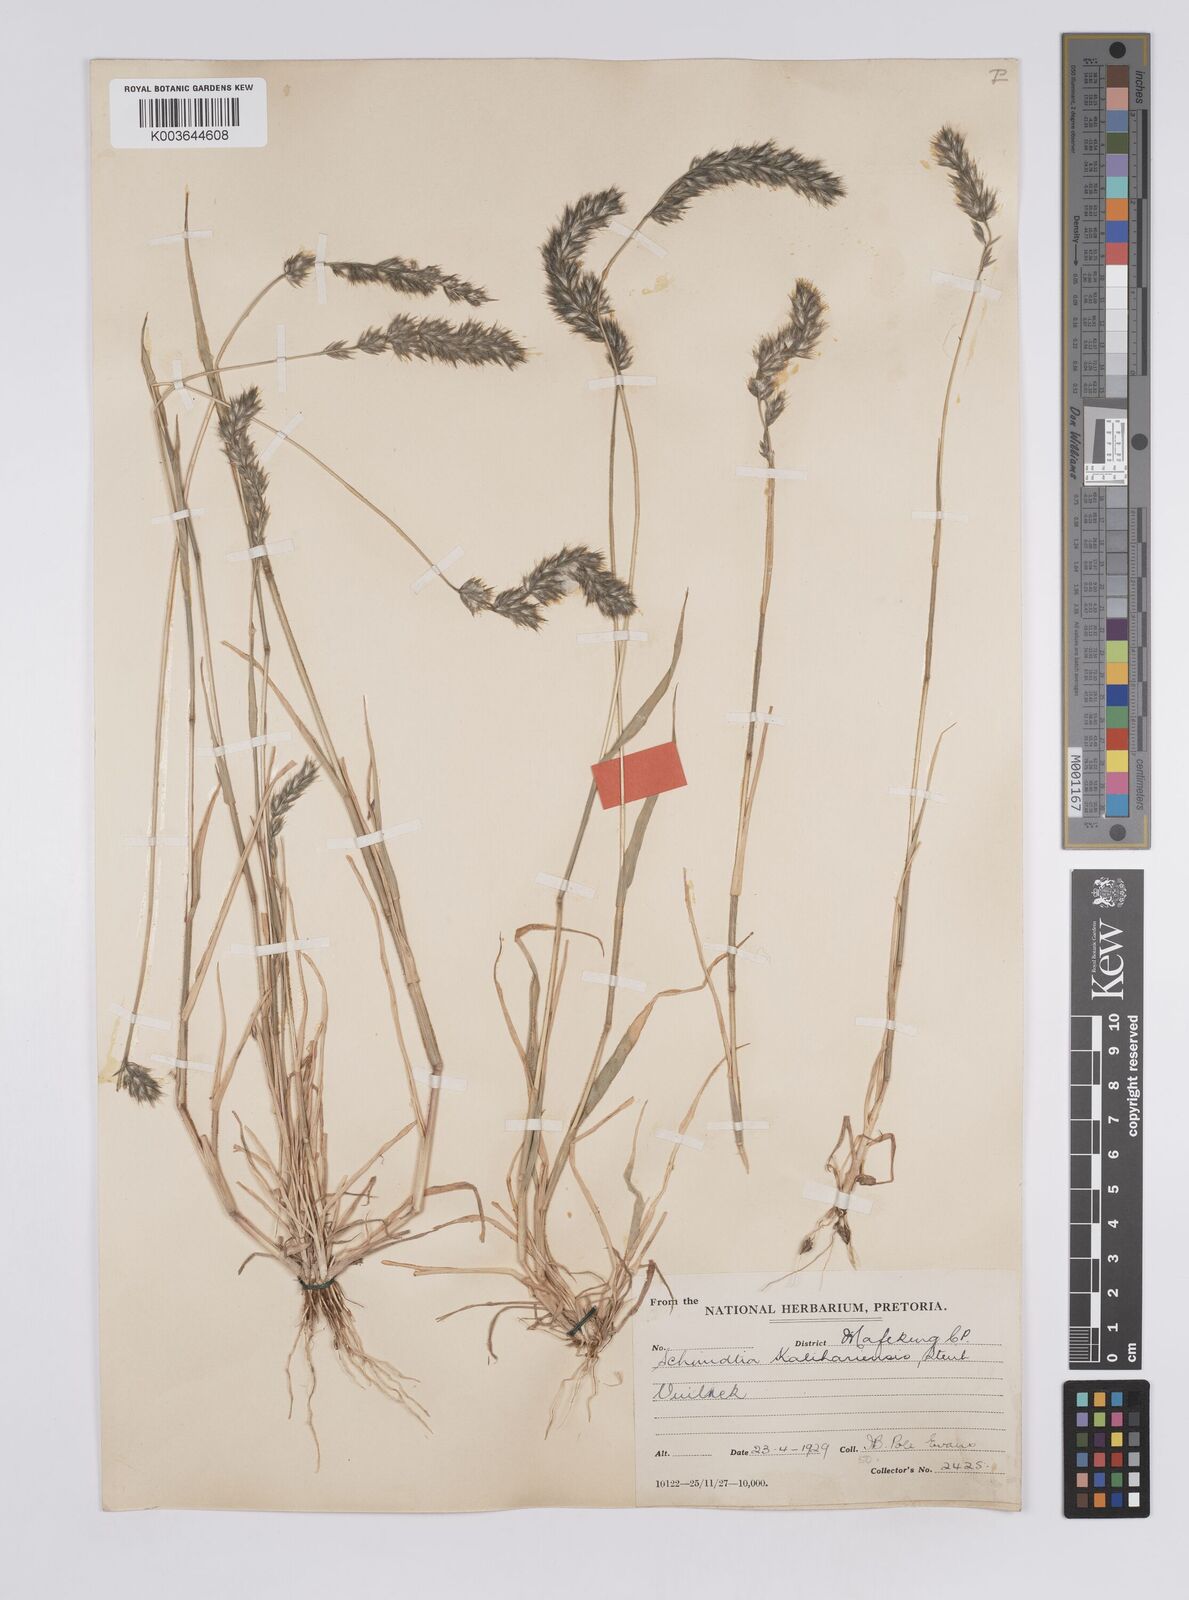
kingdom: Plantae
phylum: Tracheophyta
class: Liliopsida
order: Poales
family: Poaceae
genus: Schmidtia
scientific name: Schmidtia kalahariensis
